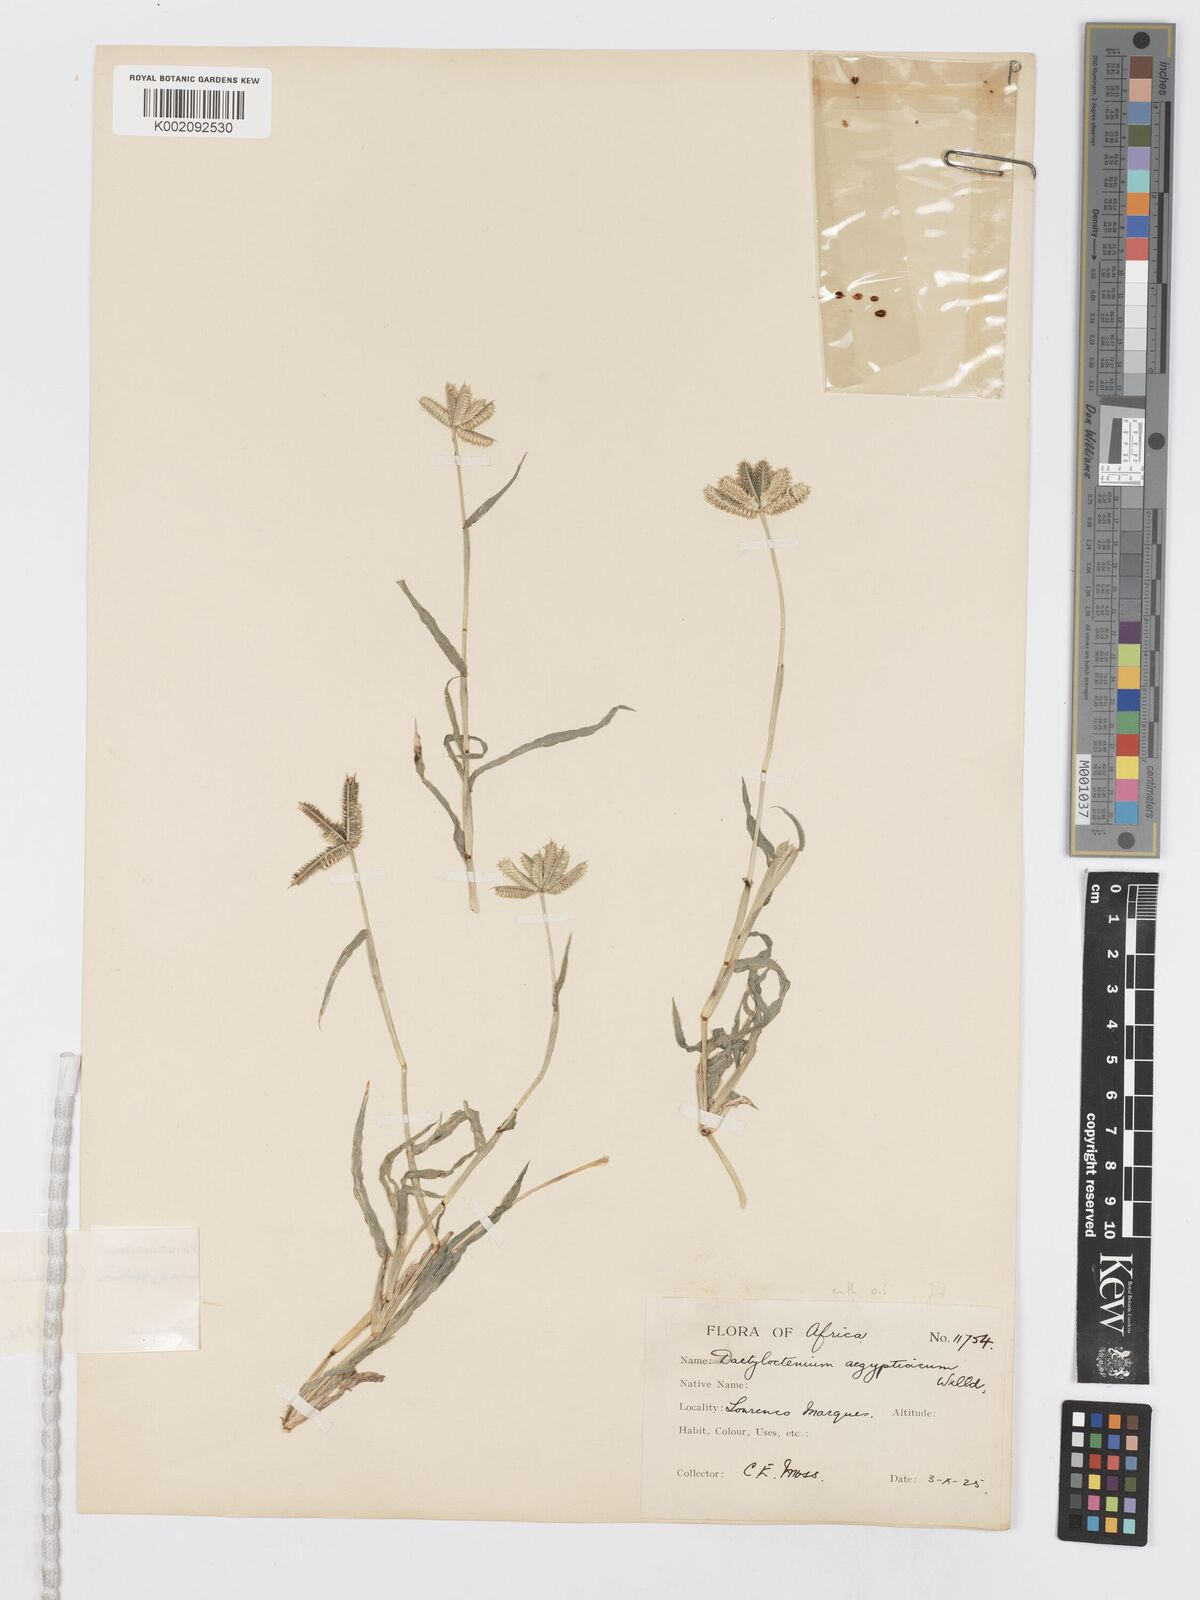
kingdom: Plantae
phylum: Tracheophyta
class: Liliopsida
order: Poales
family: Poaceae
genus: Dactyloctenium
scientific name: Dactyloctenium aegyptium
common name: Egyptian grass
